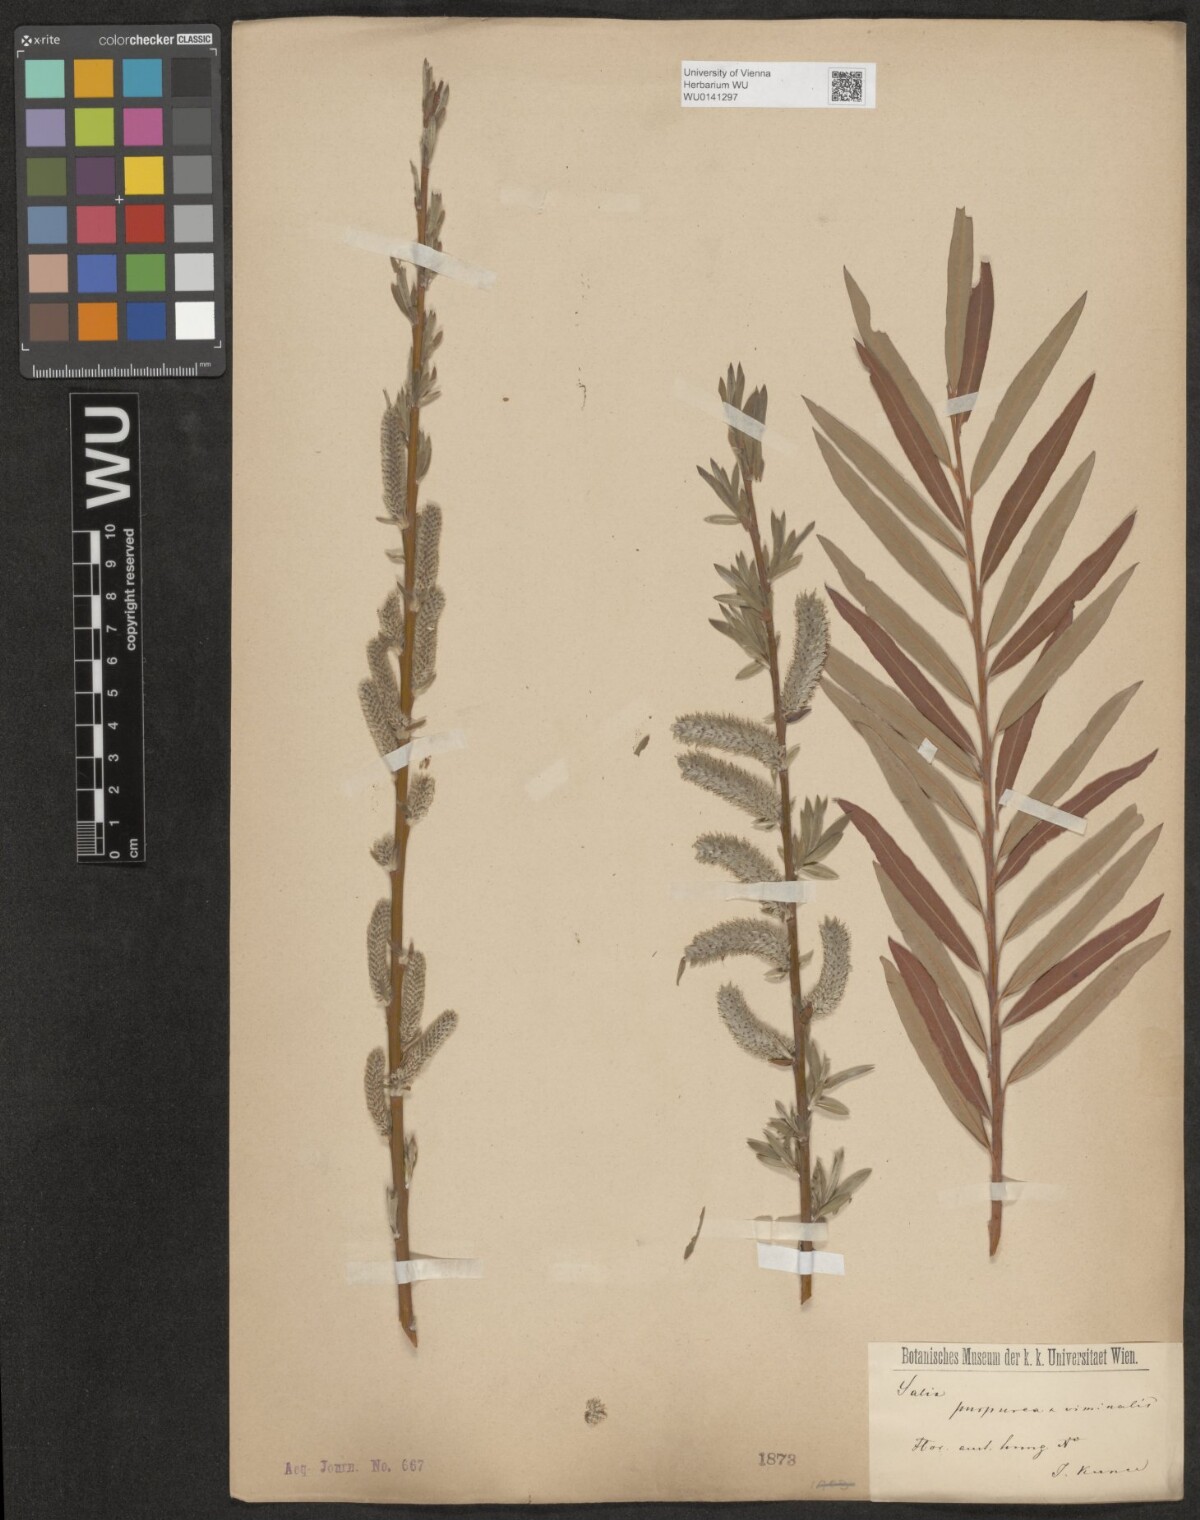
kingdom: Plantae
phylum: Tracheophyta
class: Magnoliopsida
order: Malpighiales
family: Salicaceae
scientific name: Salicaceae
